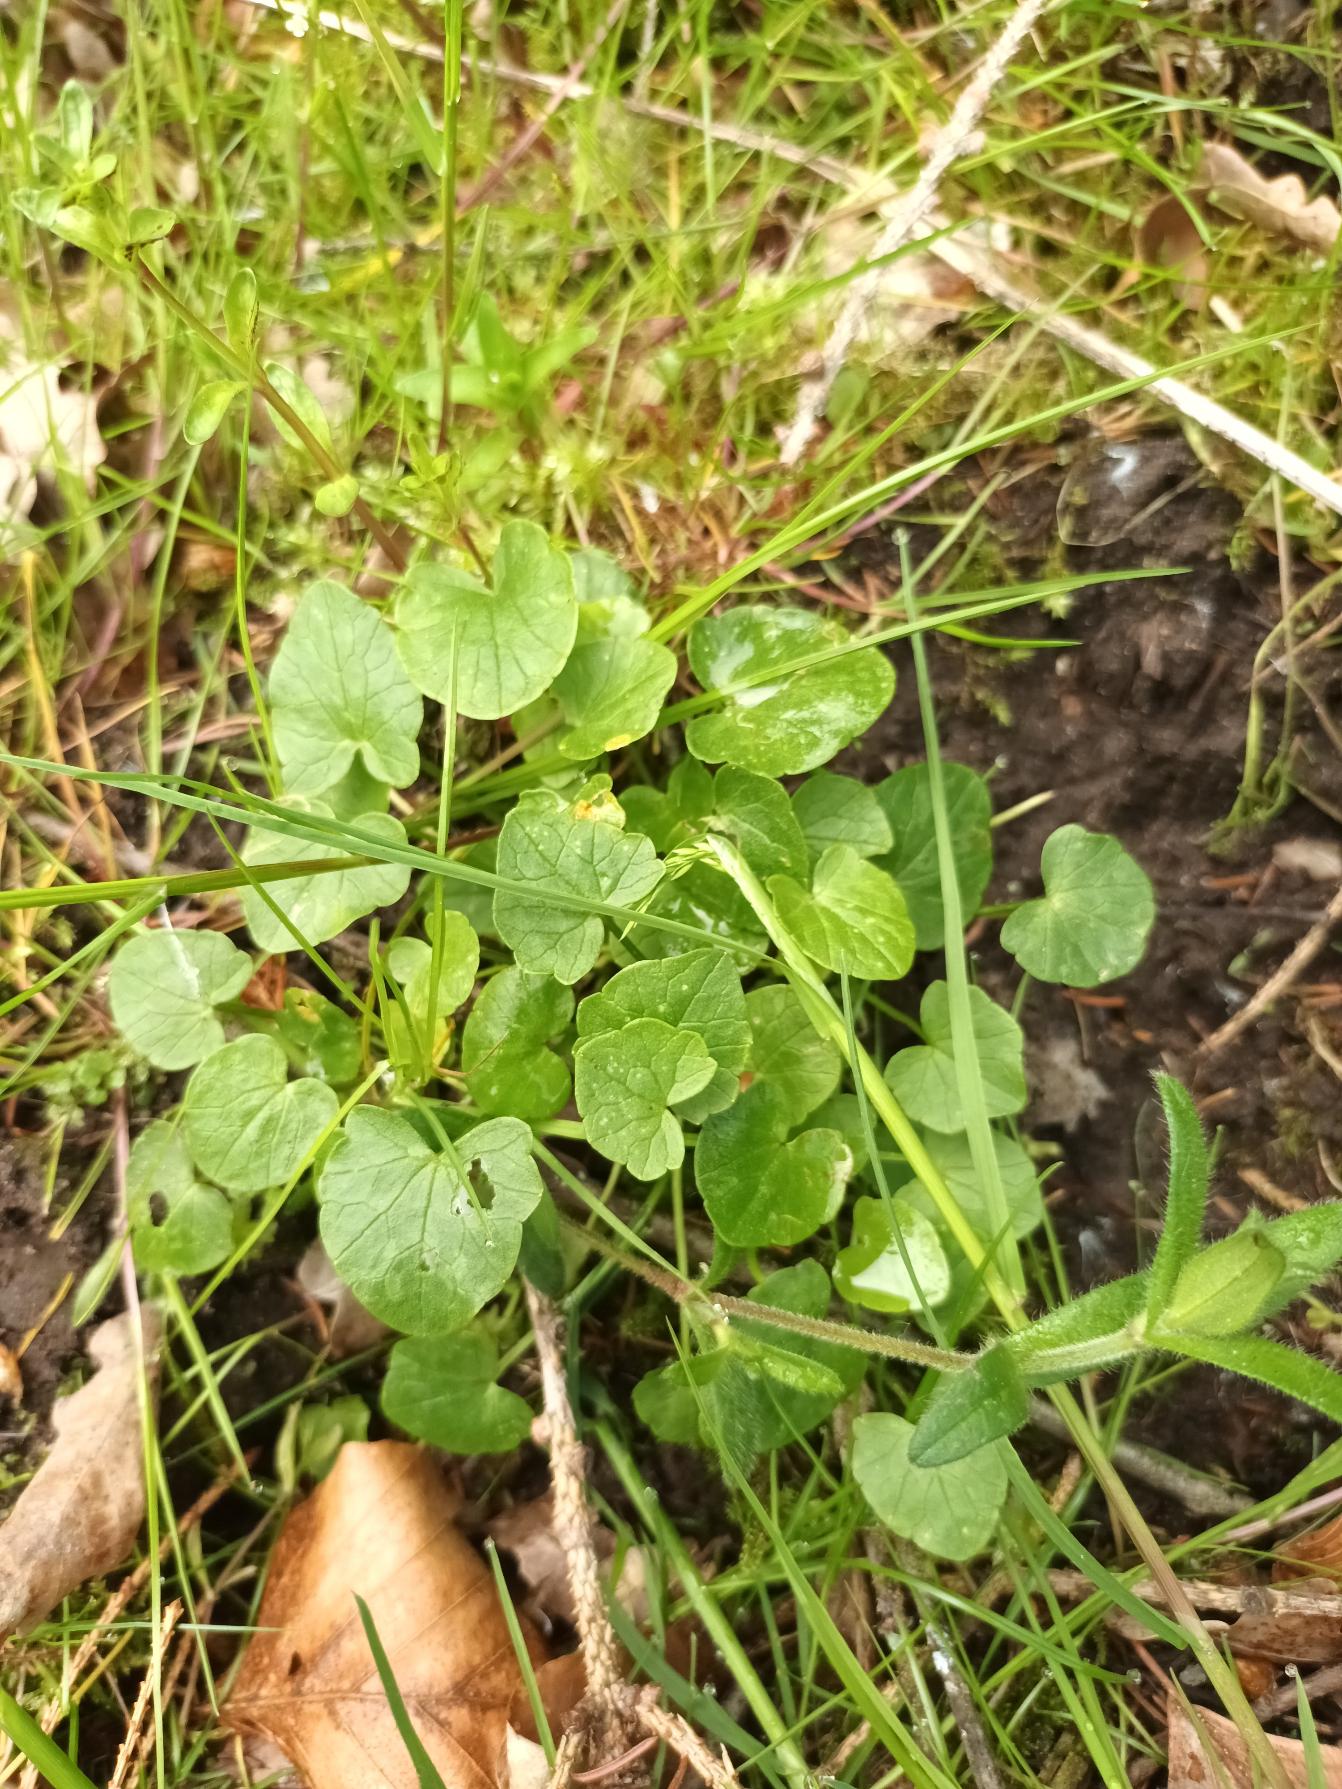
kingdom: Plantae
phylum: Tracheophyta
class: Magnoliopsida
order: Ranunculales
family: Ranunculaceae
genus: Ficaria
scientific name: Ficaria verna
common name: Vorterod
